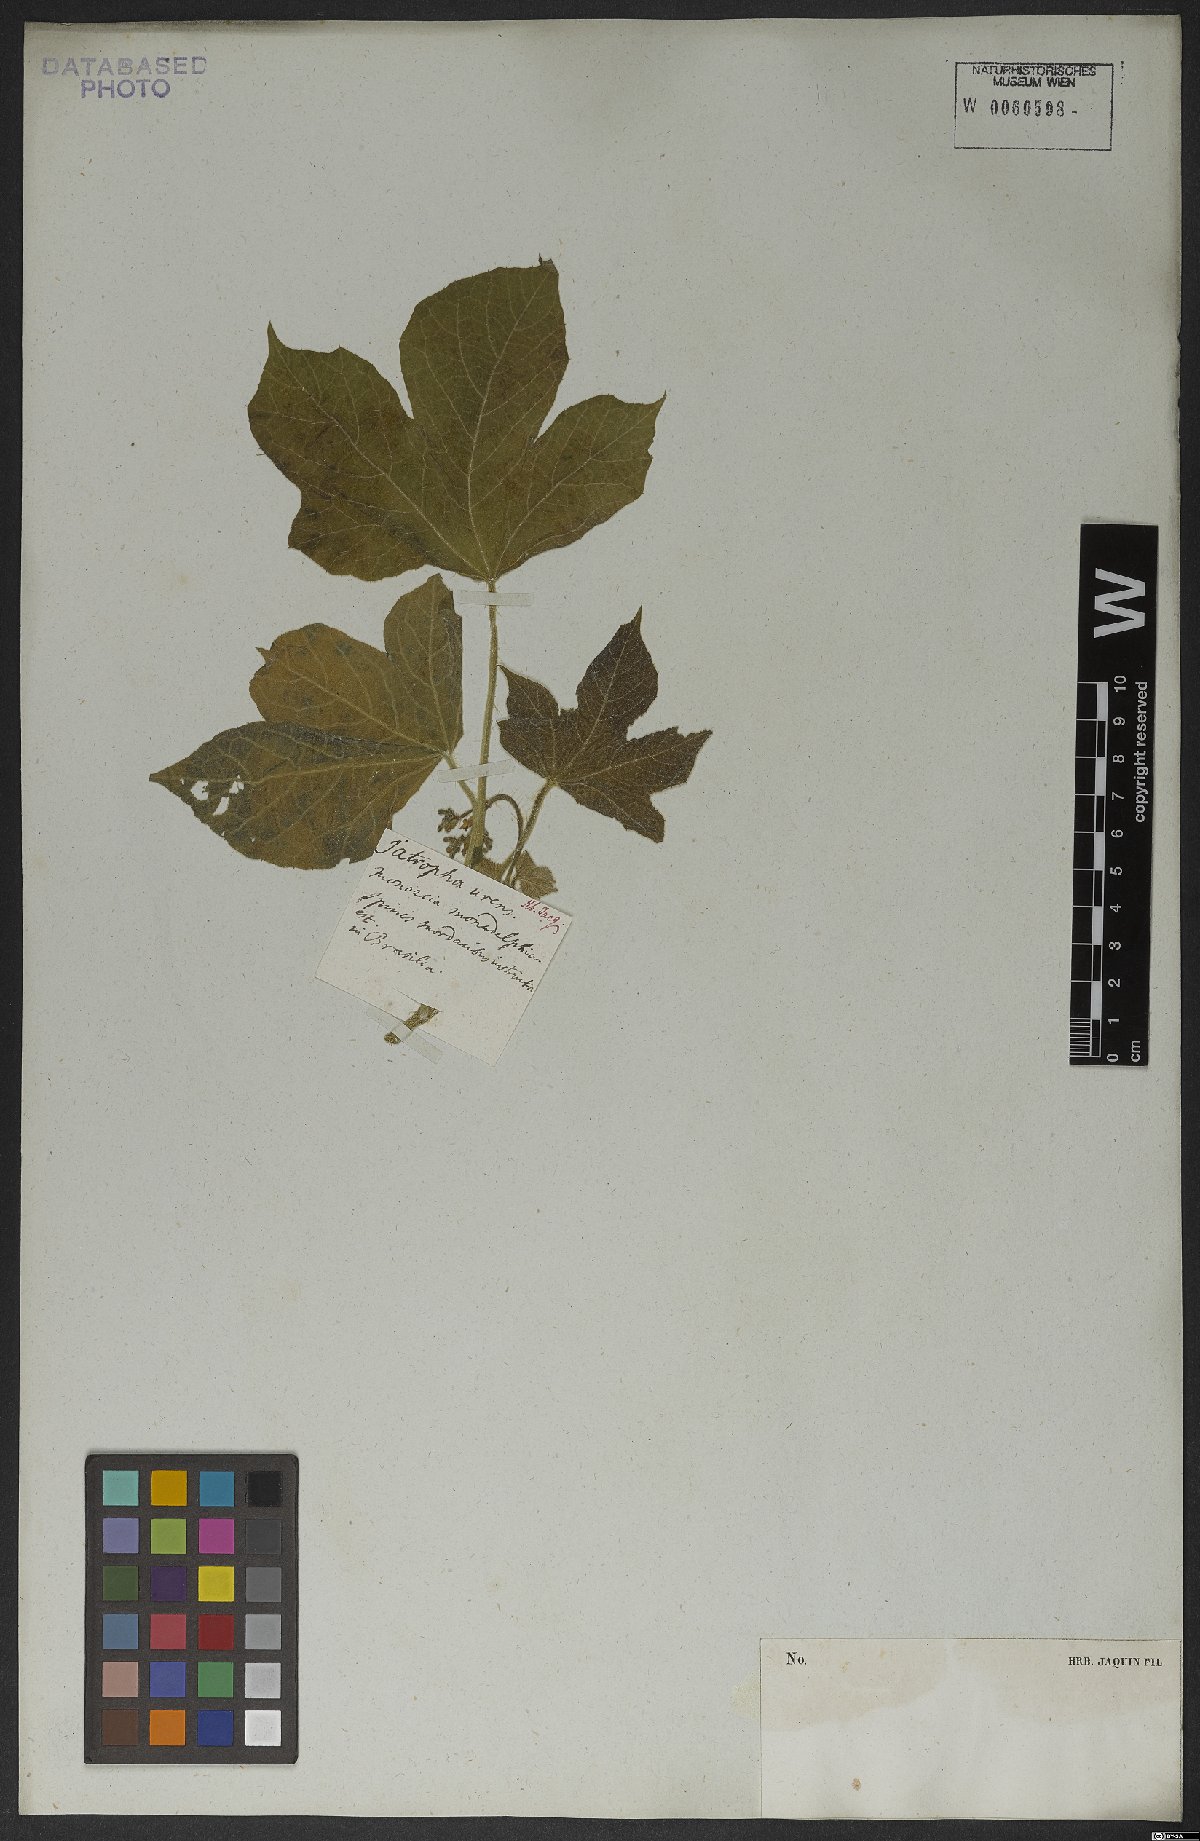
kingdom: Plantae
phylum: Tracheophyta
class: Magnoliopsida
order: Malpighiales
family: Euphorbiaceae
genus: Cnidoscolus
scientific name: Cnidoscolus urens
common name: Bull-nettle
